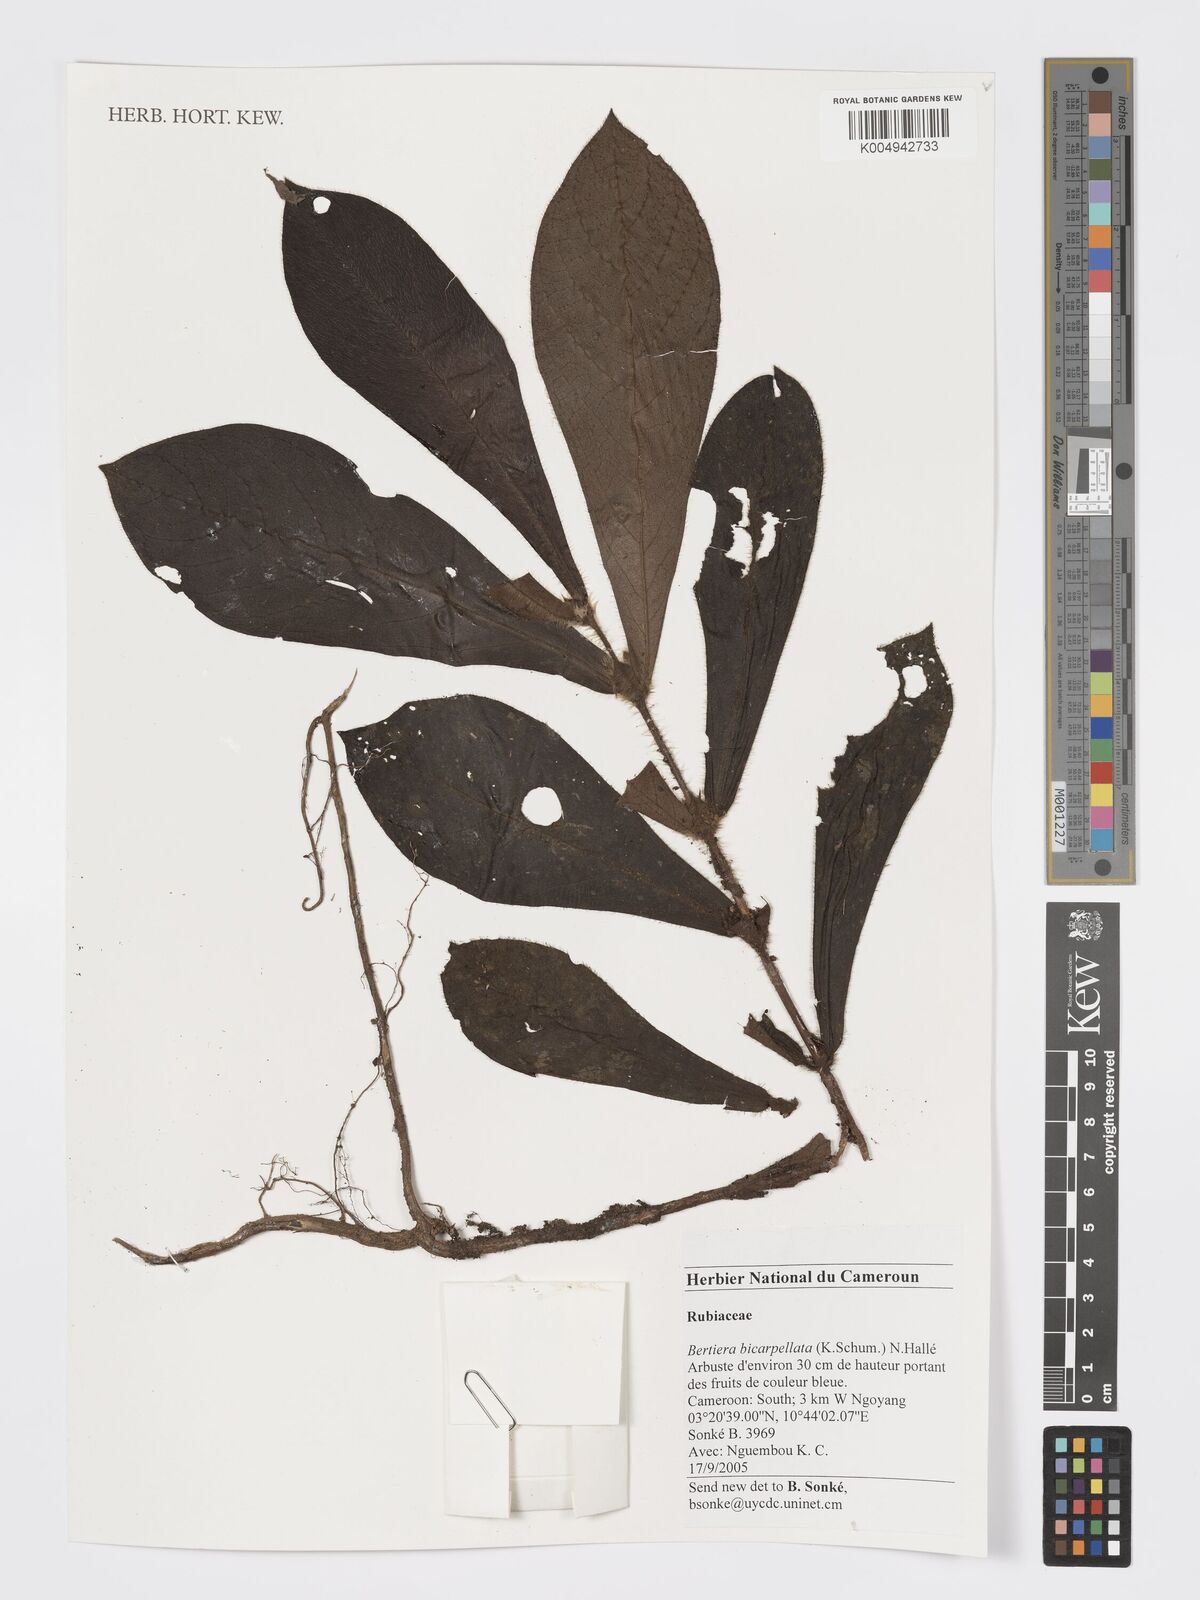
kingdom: Plantae
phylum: Tracheophyta
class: Magnoliopsida
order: Gentianales
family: Rubiaceae
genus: Bertiera
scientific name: Bertiera bicarpellata
